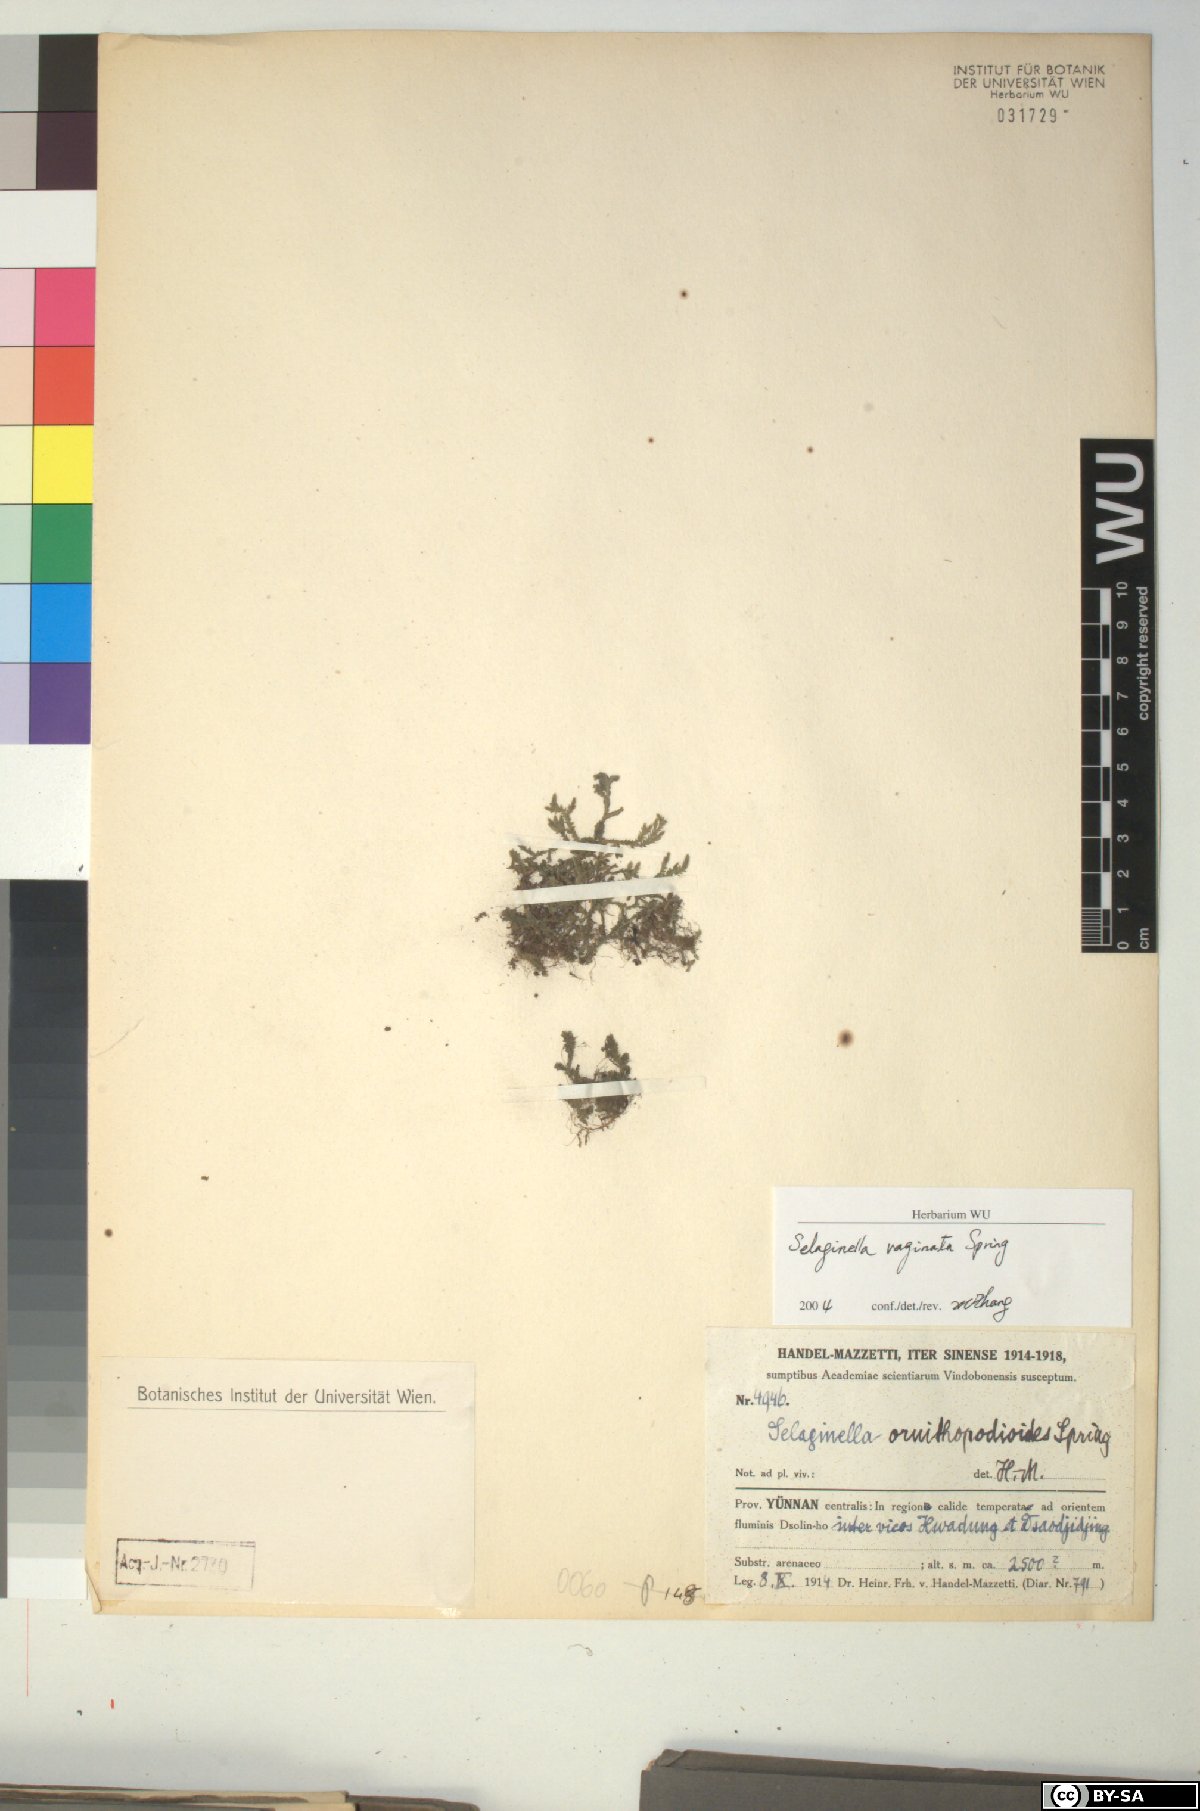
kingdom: Plantae
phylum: Tracheophyta
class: Lycopodiopsida
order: Selaginellales
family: Selaginellaceae
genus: Selaginella
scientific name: Selaginella vaginata
